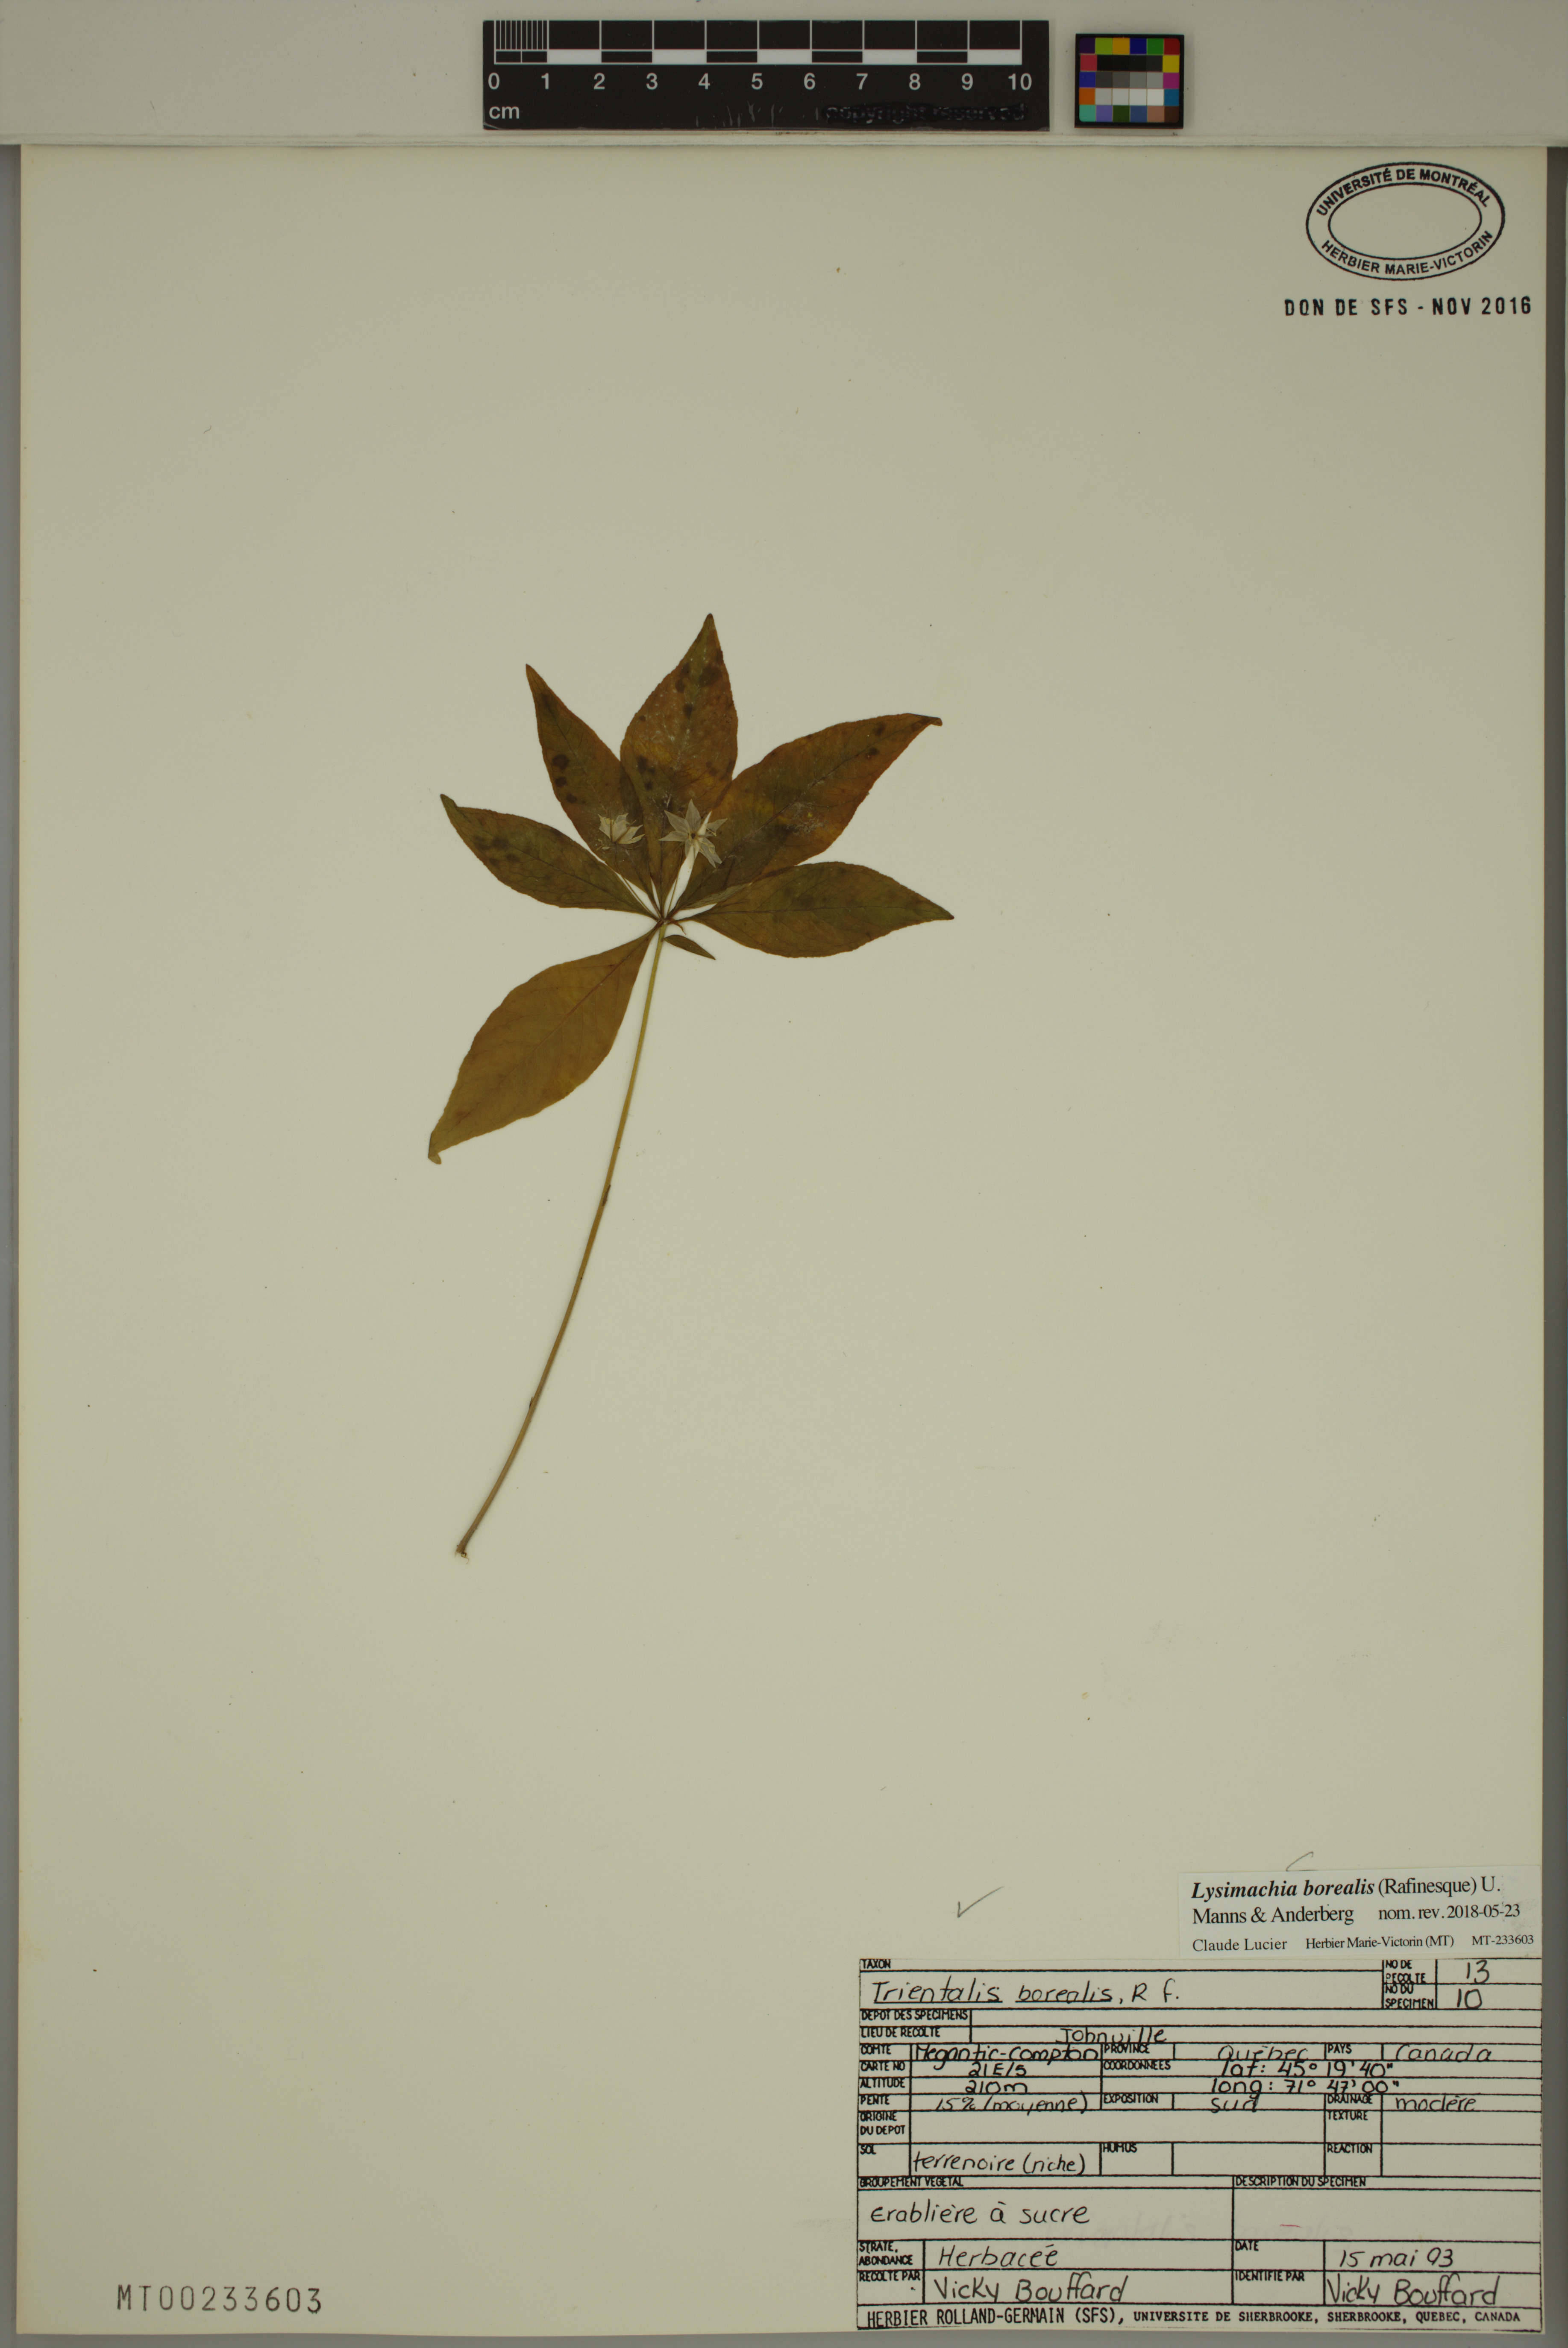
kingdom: Plantae
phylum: Tracheophyta
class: Magnoliopsida
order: Ericales
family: Primulaceae
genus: Lysimachia
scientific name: Lysimachia borealis
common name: American starflower
